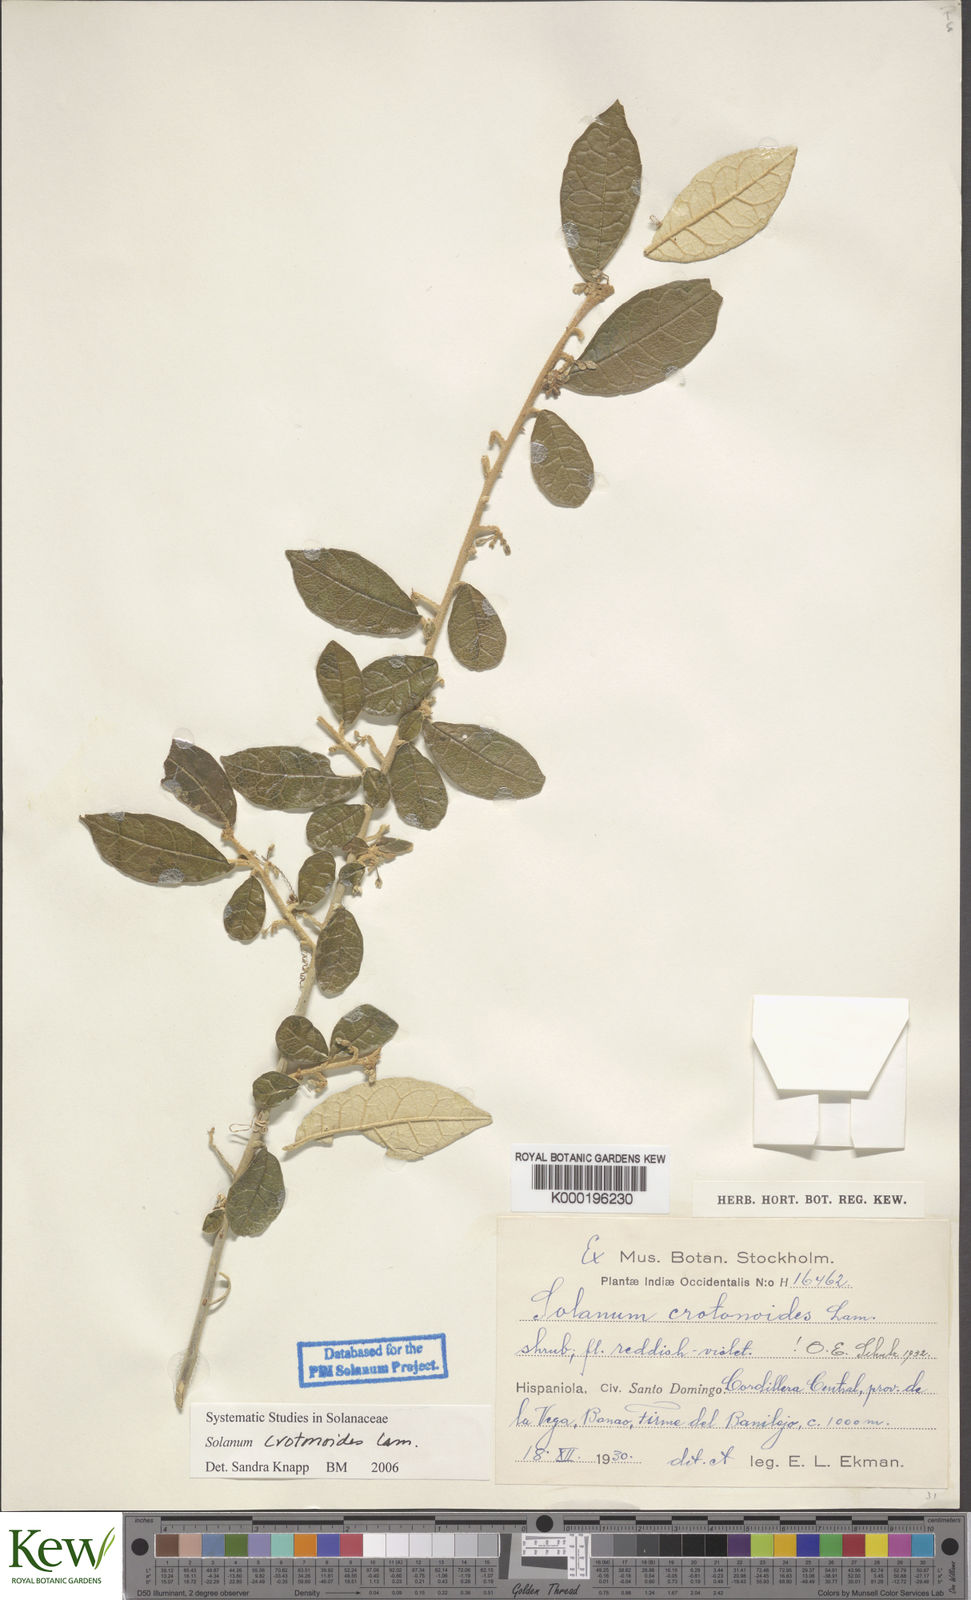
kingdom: Plantae
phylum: Tracheophyta
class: Magnoliopsida
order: Solanales
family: Solanaceae
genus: Solanum
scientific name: Solanum crotonoides
